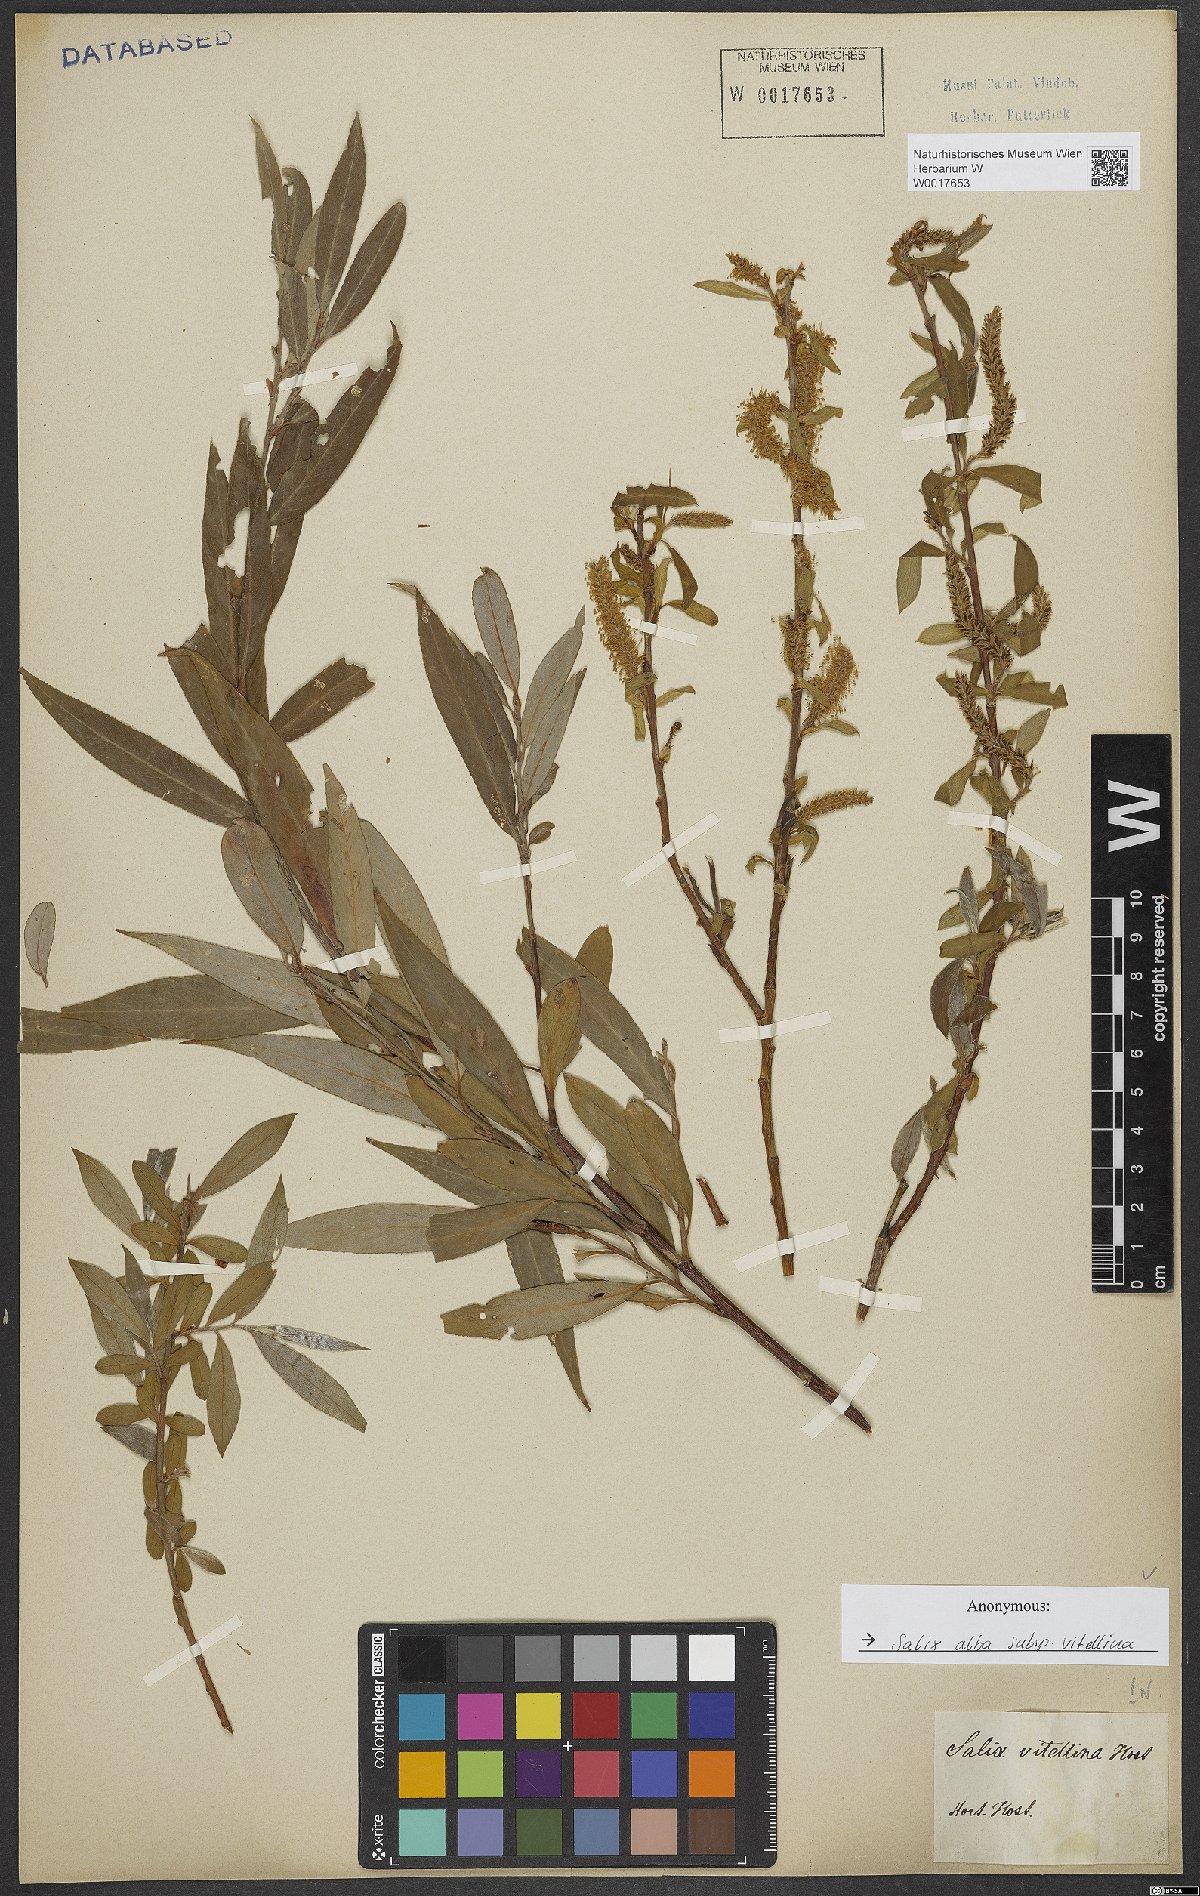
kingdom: Plantae
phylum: Tracheophyta
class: Magnoliopsida
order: Malpighiales
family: Salicaceae
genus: Salix
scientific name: Salix alba
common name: White willow
